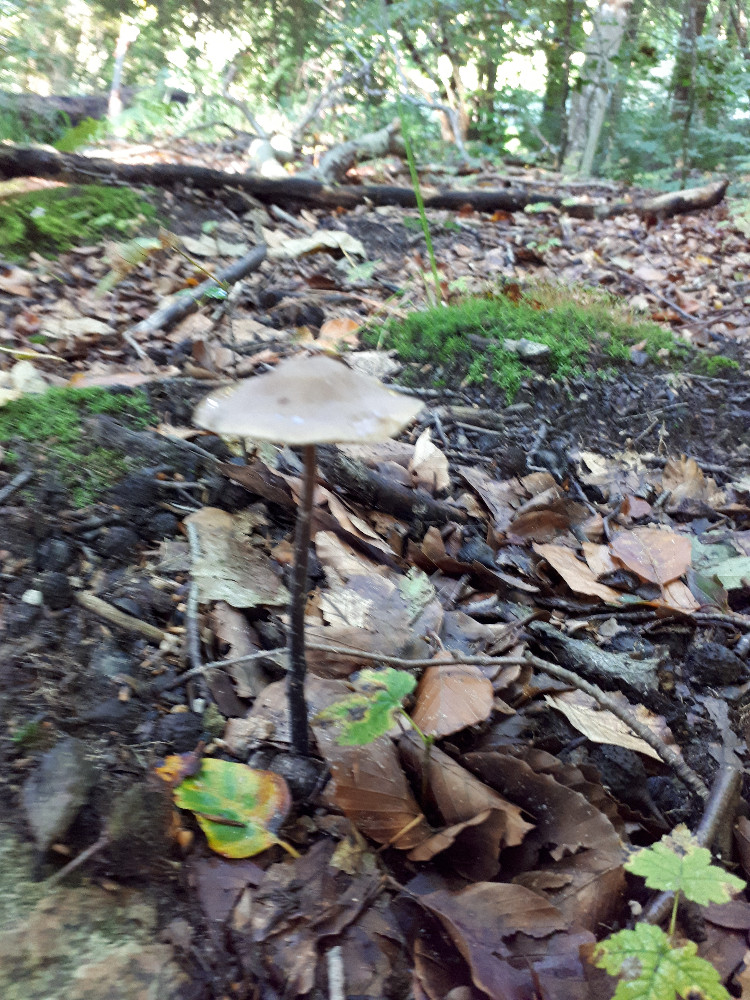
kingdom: Fungi
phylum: Basidiomycota
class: Agaricomycetes
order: Agaricales
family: Omphalotaceae
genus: Mycetinis
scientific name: Mycetinis alliaceus
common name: stor løghat
